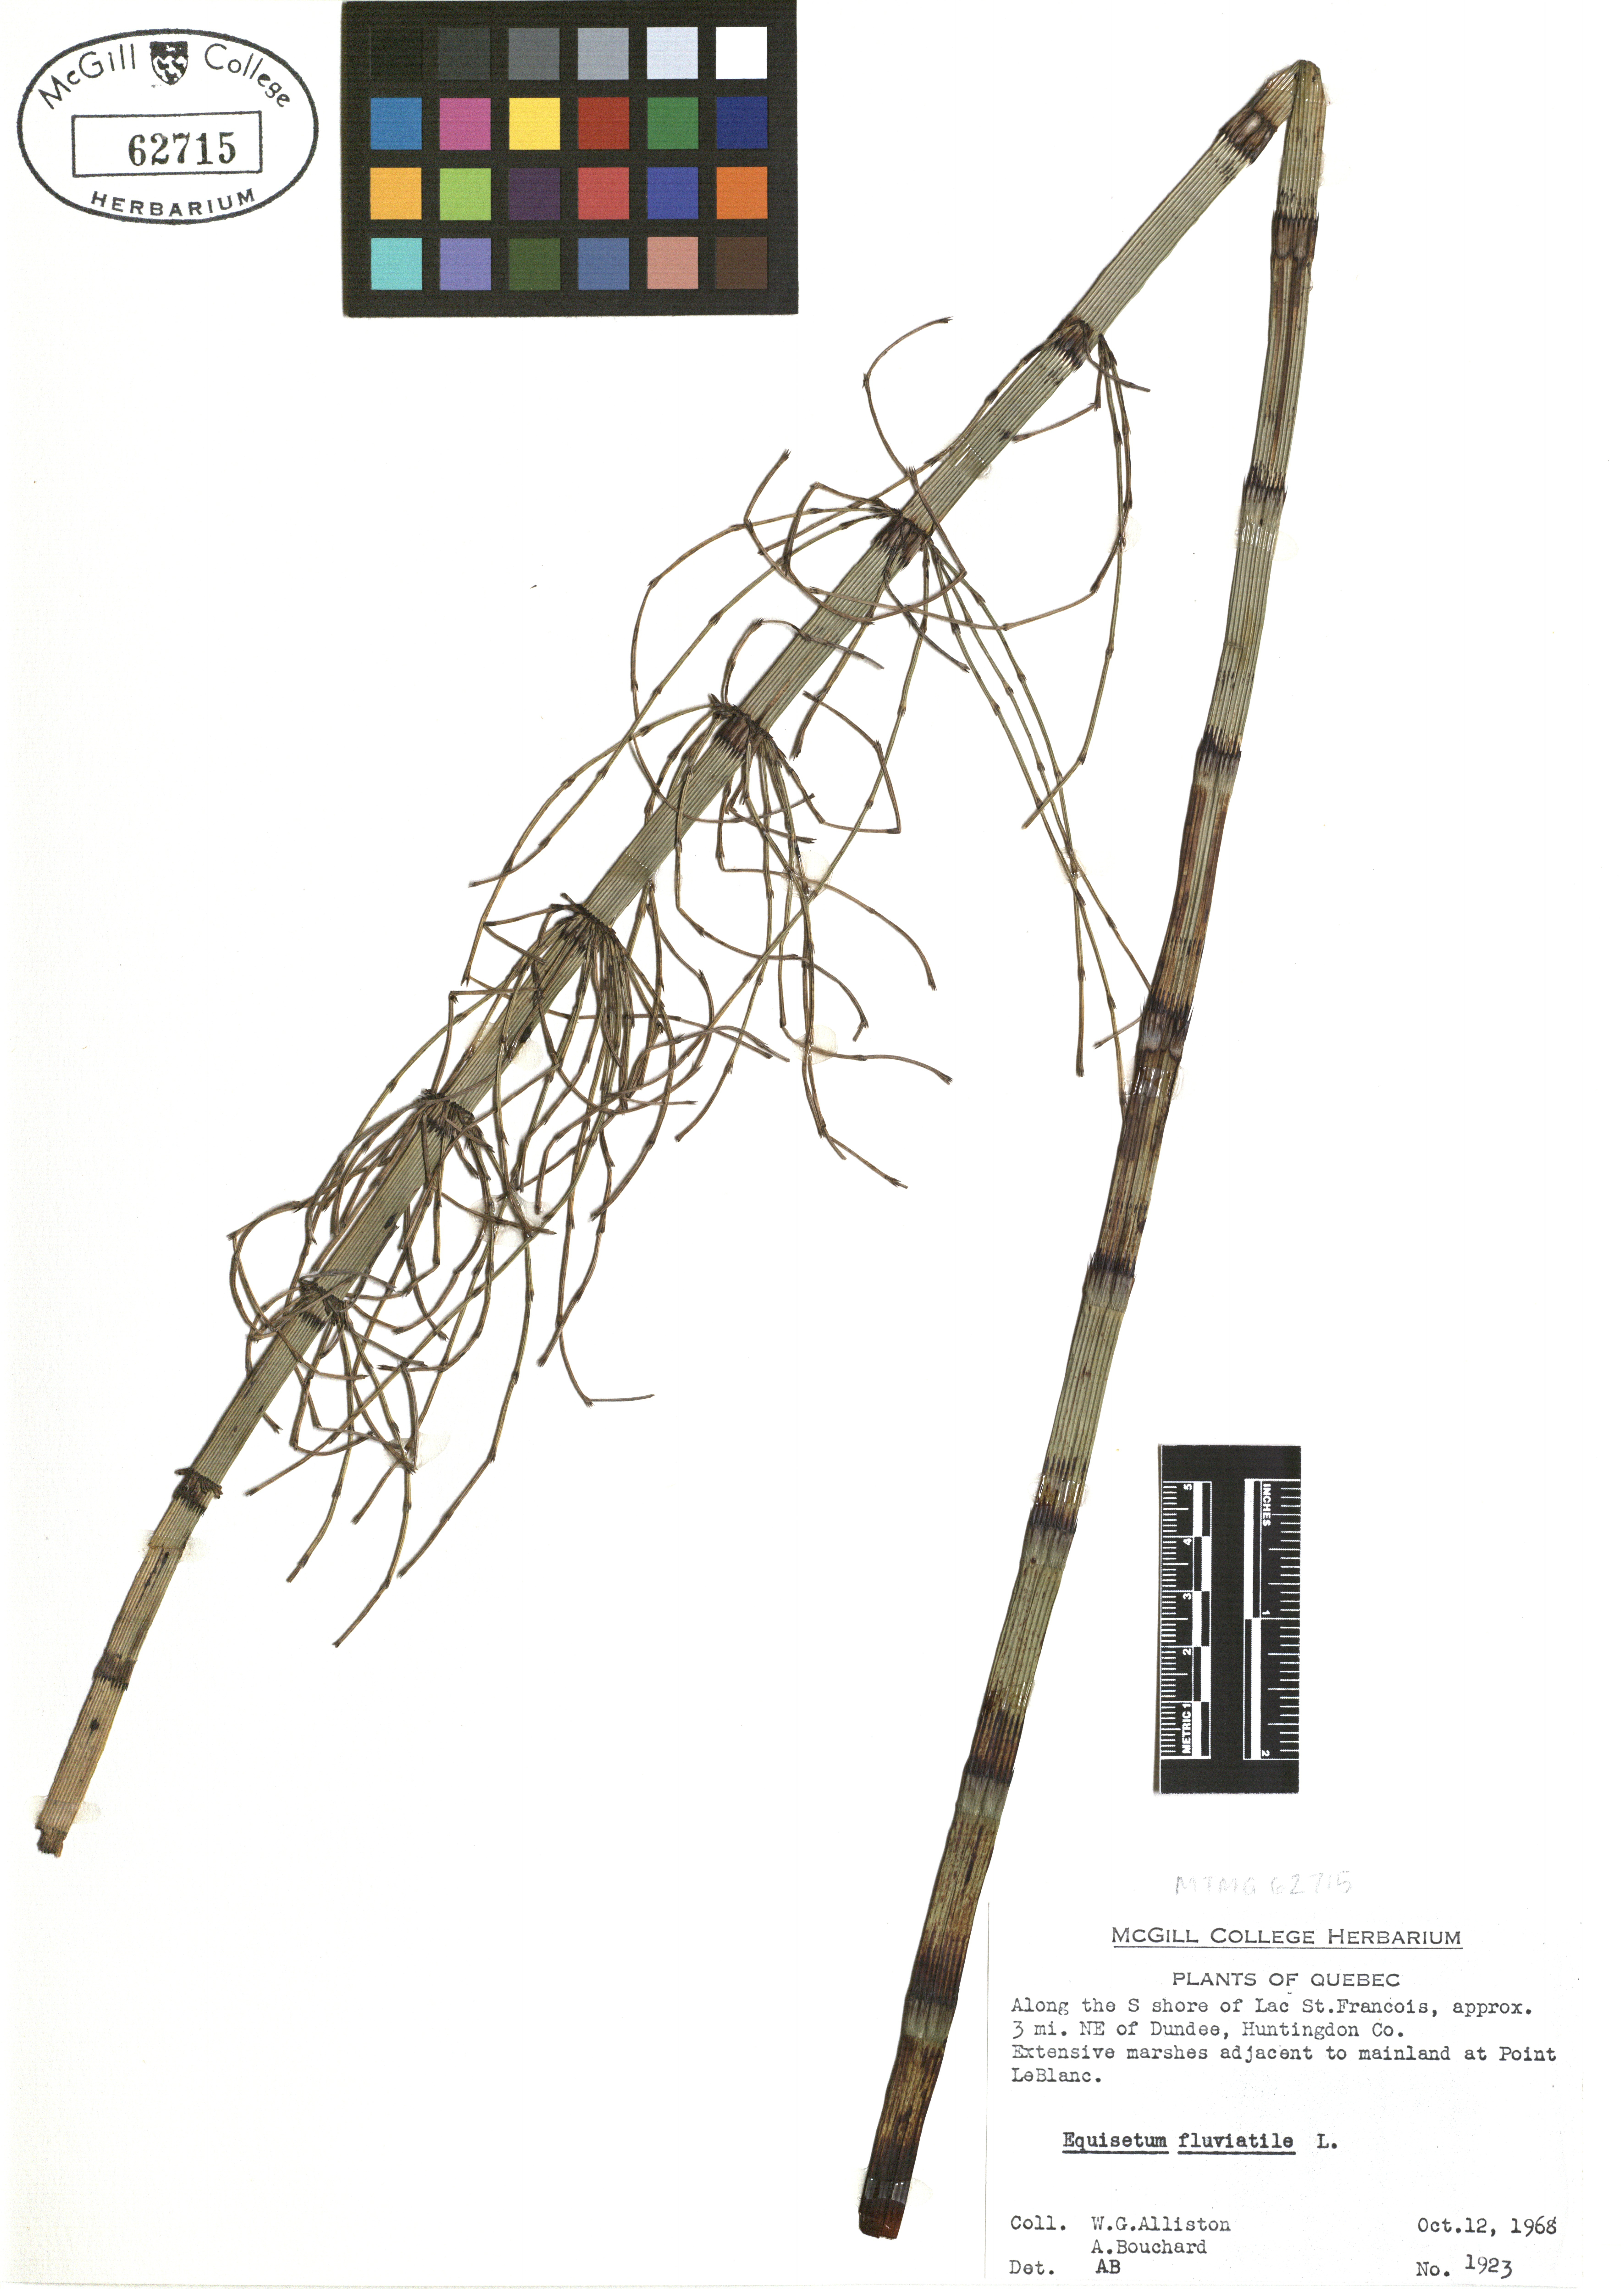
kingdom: Plantae
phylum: Tracheophyta
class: Polypodiopsida
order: Equisetales
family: Equisetaceae
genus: Equisetum
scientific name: Equisetum fluviatile
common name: Water horsetail
